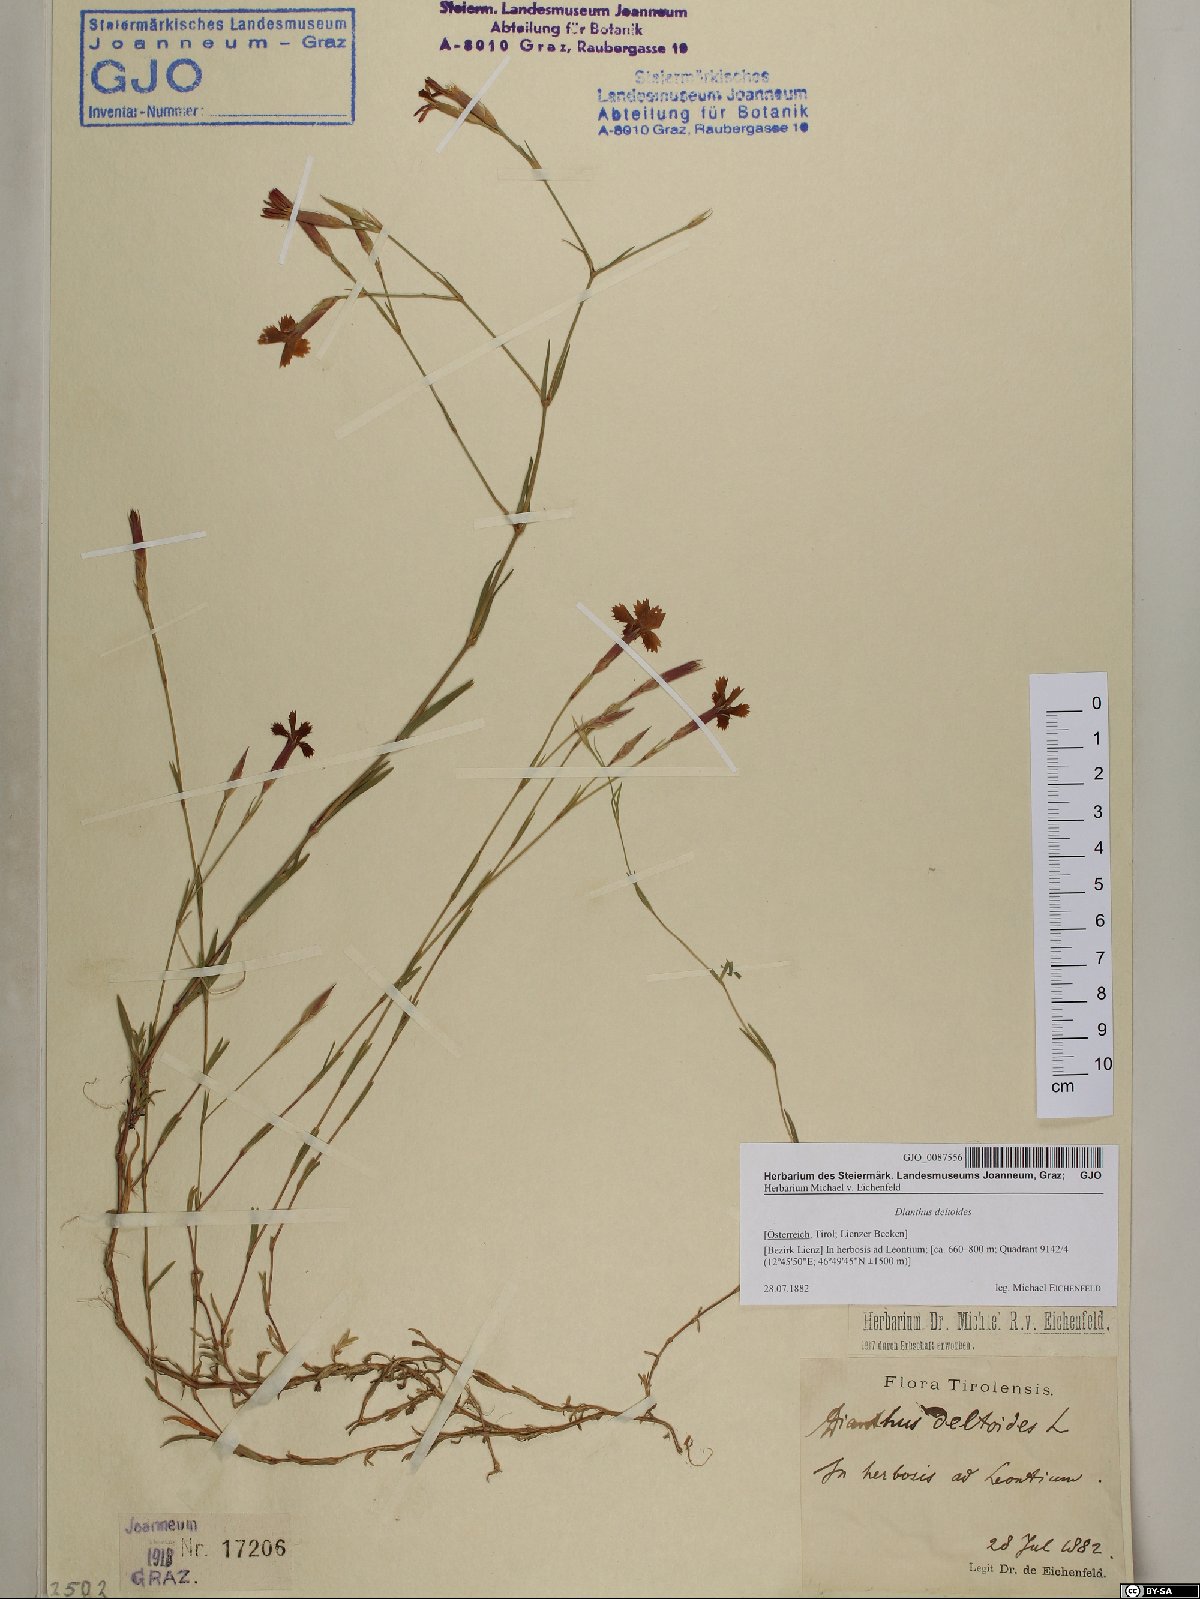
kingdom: Plantae
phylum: Tracheophyta
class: Magnoliopsida
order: Caryophyllales
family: Caryophyllaceae
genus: Dianthus
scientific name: Dianthus deltoides
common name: Maiden pink
